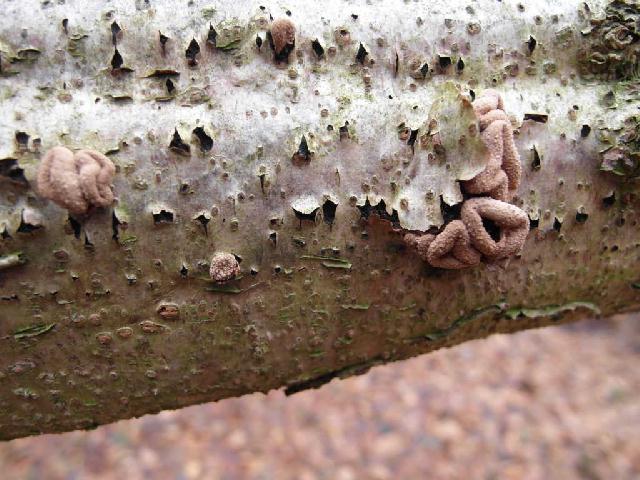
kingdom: Fungi
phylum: Ascomycota
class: Leotiomycetes
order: Helotiales
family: Cenangiaceae
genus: Encoelia
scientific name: Encoelia furfuracea
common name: hassel-læderskive
